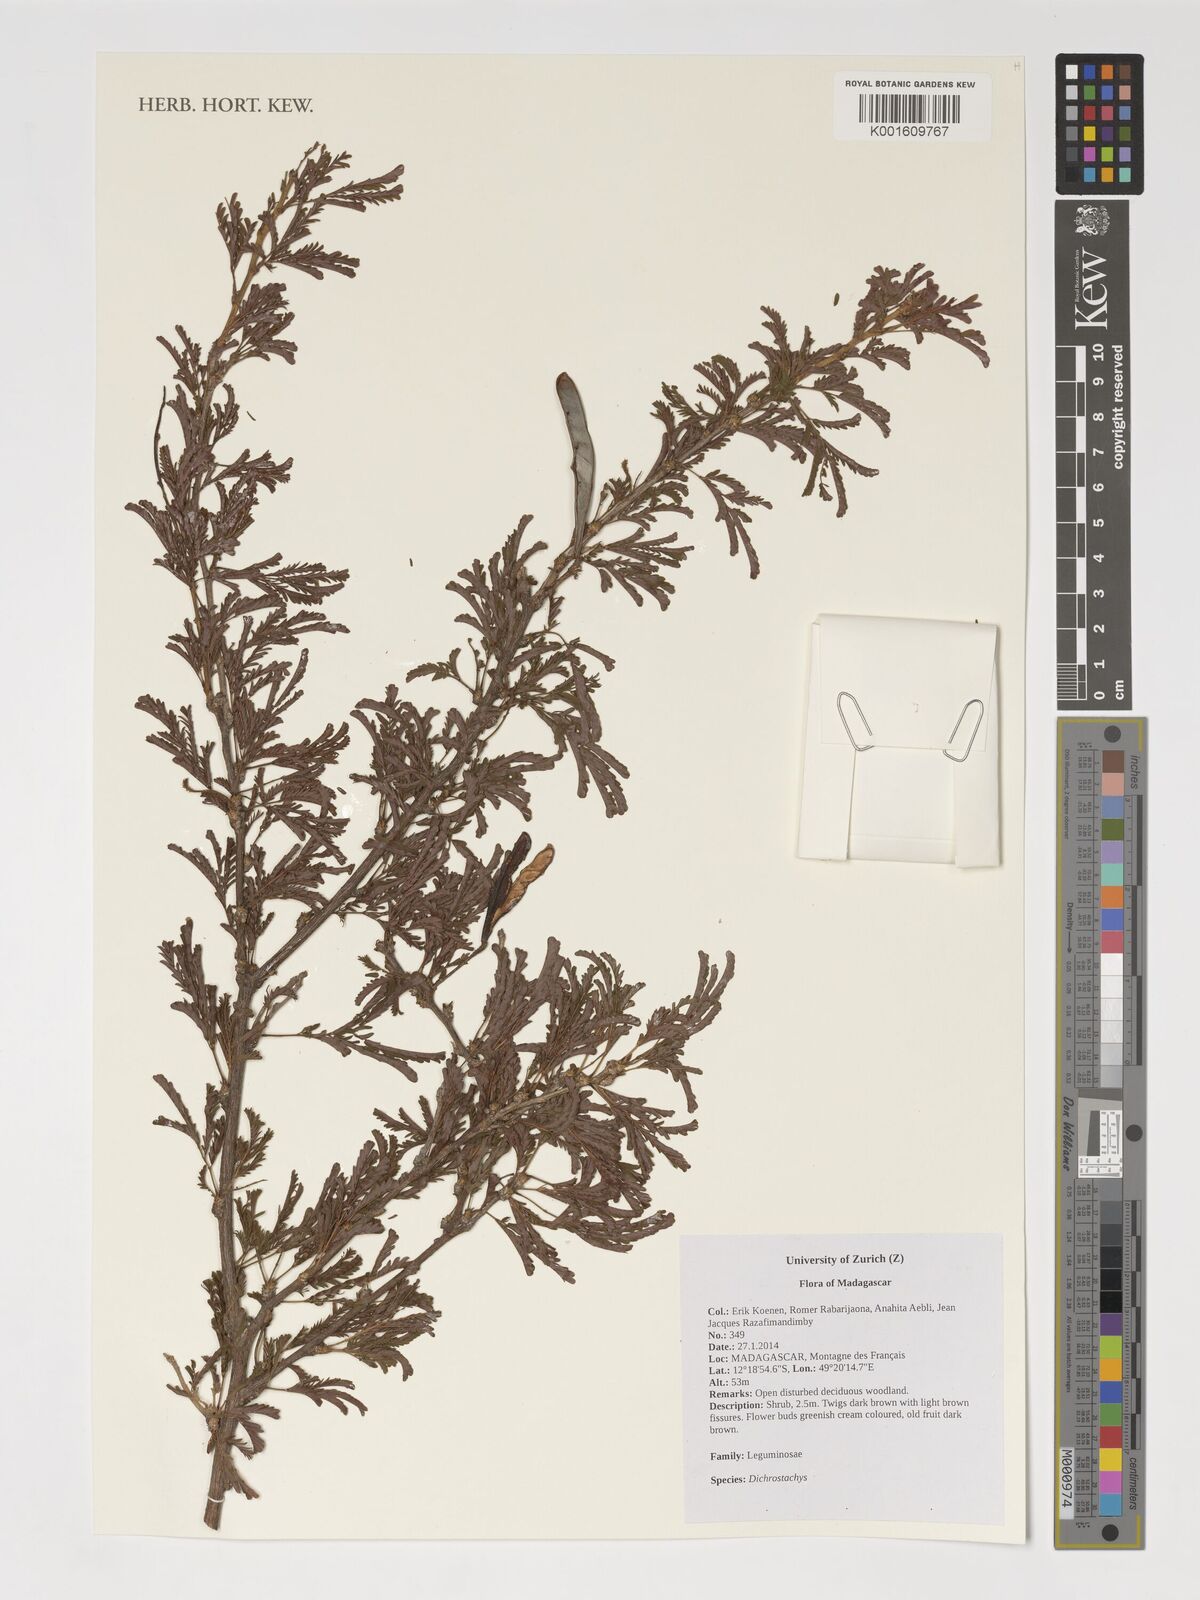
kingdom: Plantae
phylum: Tracheophyta
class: Magnoliopsida
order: Fabales
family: Fabaceae
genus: Dichrostachys
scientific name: Dichrostachys
